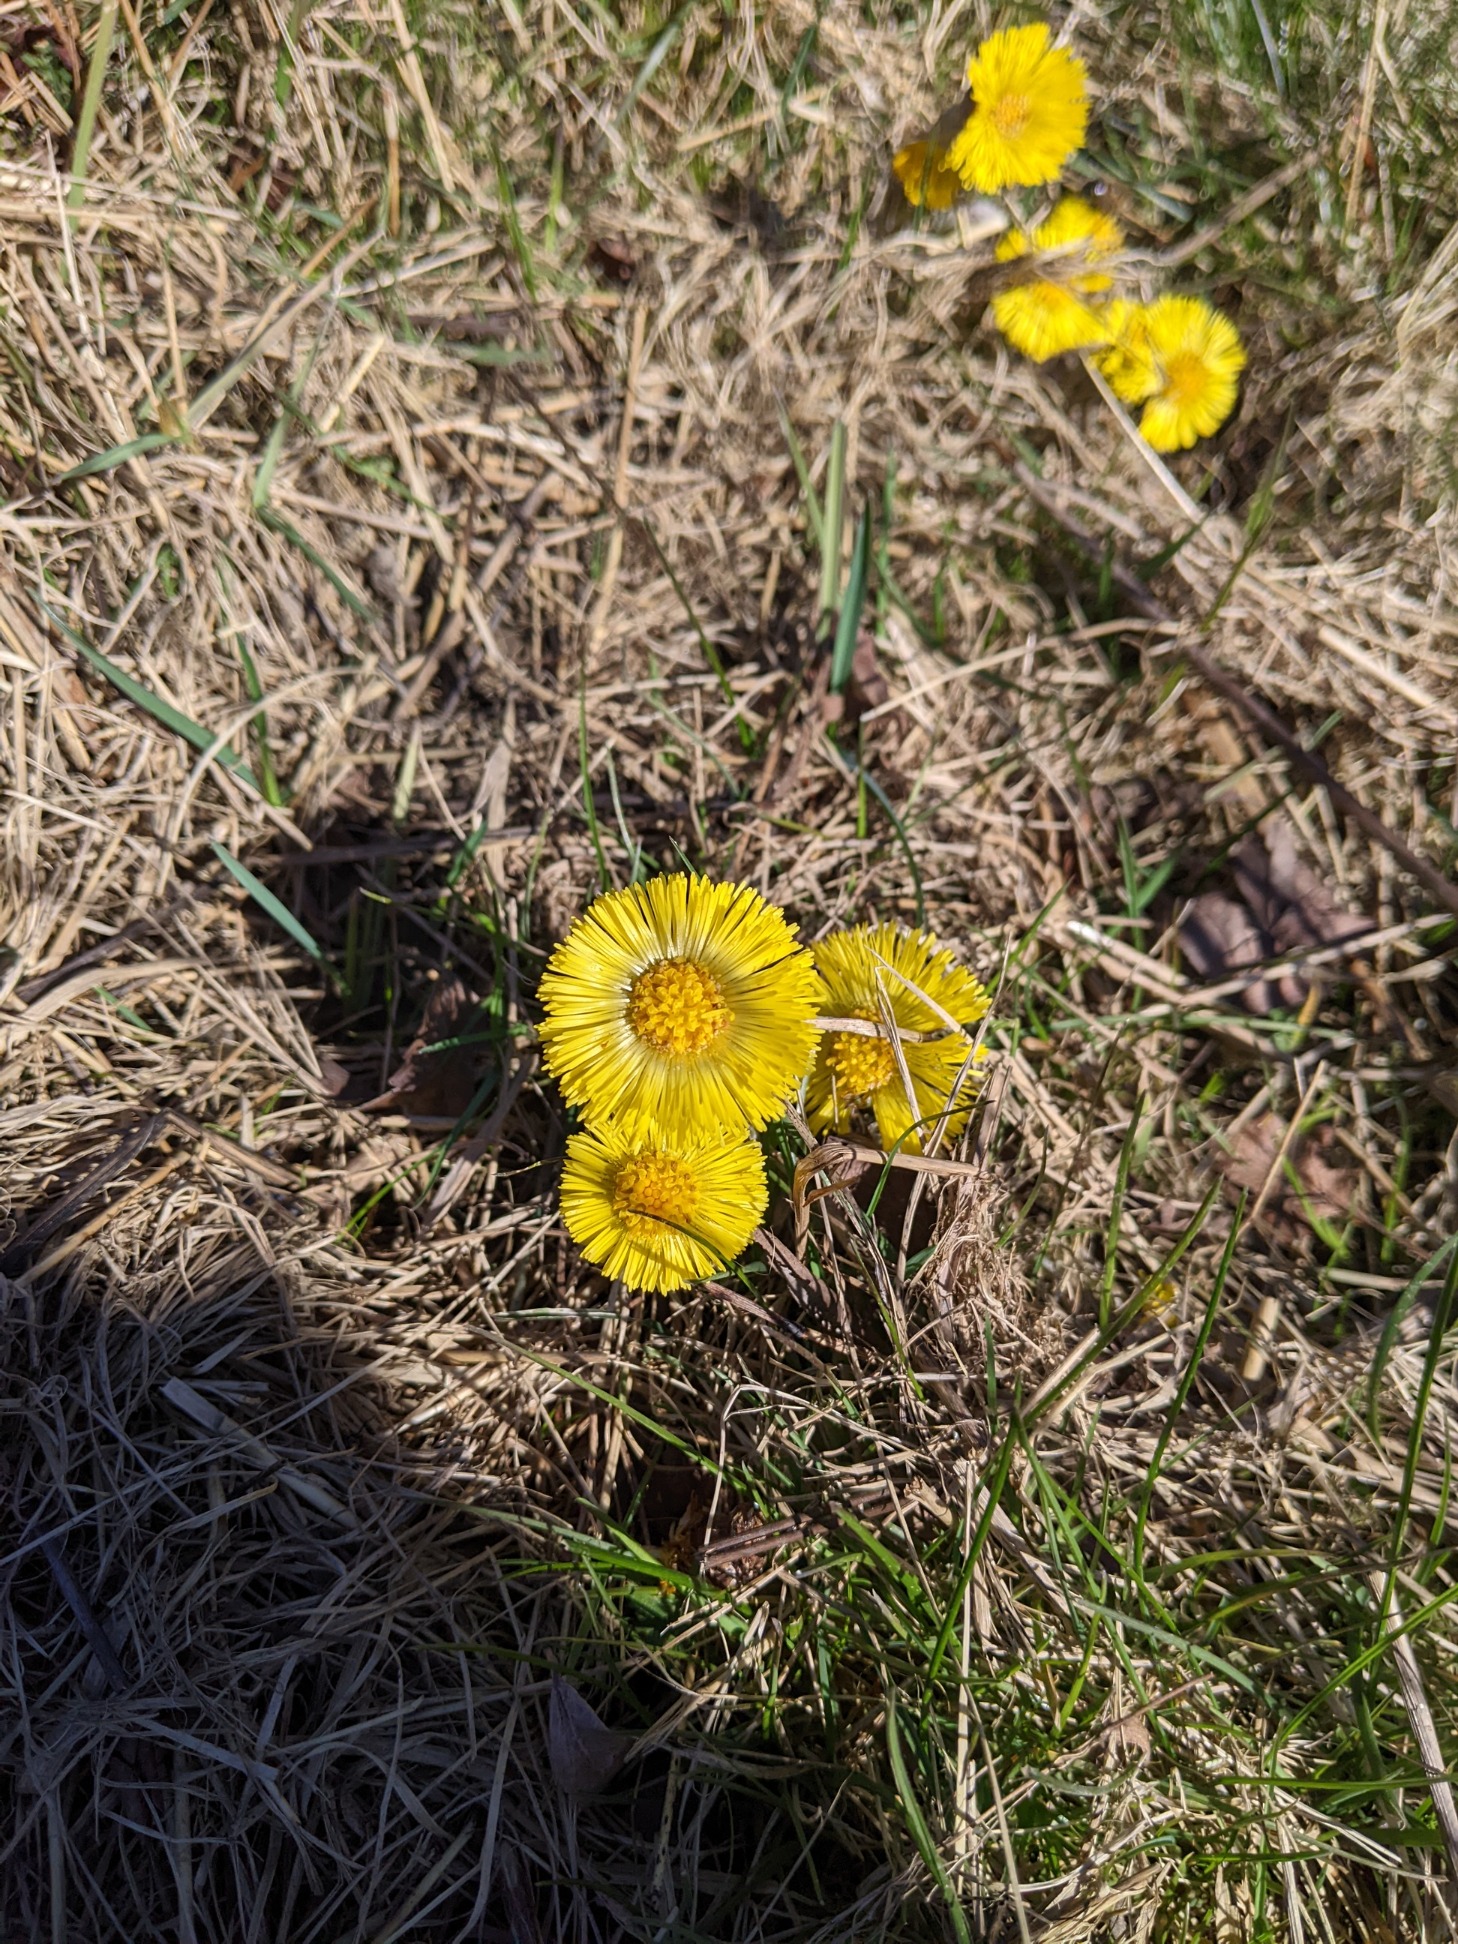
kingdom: Plantae
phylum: Tracheophyta
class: Magnoliopsida
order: Asterales
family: Asteraceae
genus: Tussilago
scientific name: Tussilago farfara
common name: Følfod
